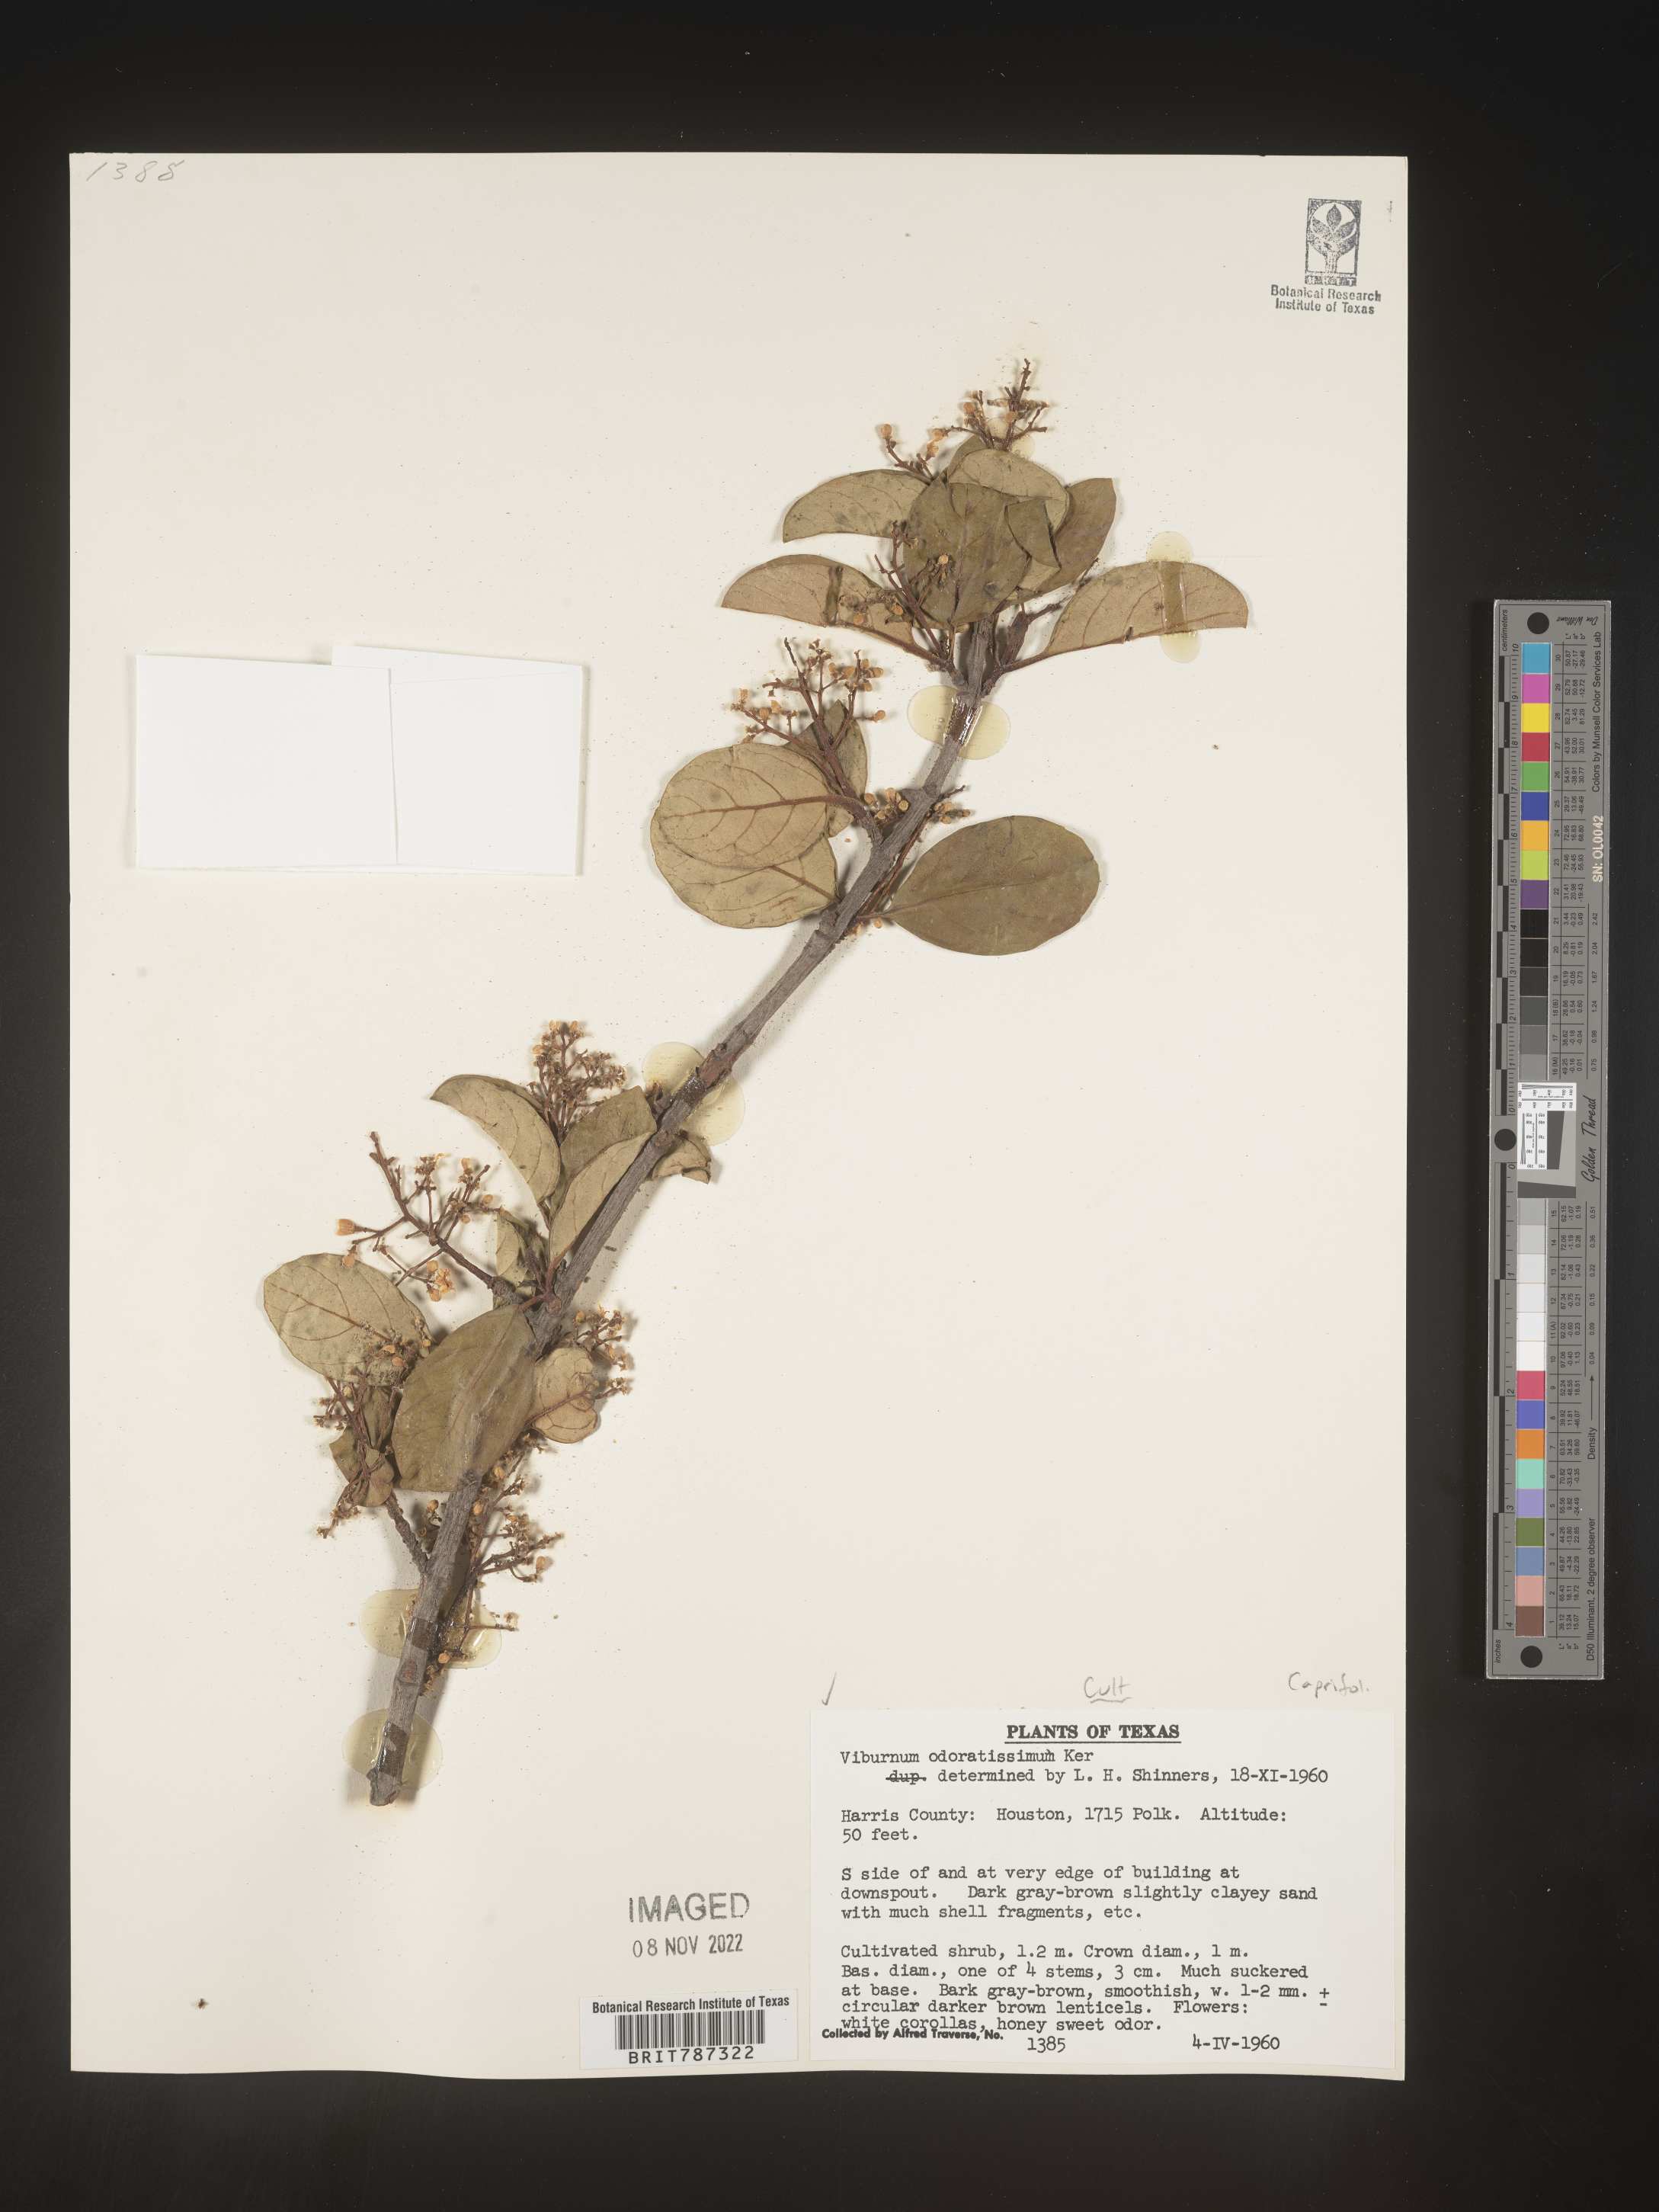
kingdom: Plantae
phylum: Tracheophyta
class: Magnoliopsida
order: Dipsacales
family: Viburnaceae
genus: Viburnum
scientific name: Viburnum
